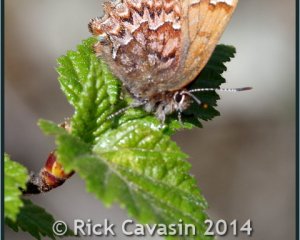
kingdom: Animalia
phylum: Arthropoda
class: Insecta
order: Lepidoptera
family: Lycaenidae
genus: Incisalia
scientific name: Incisalia eryphon
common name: Western Pine Elfin
